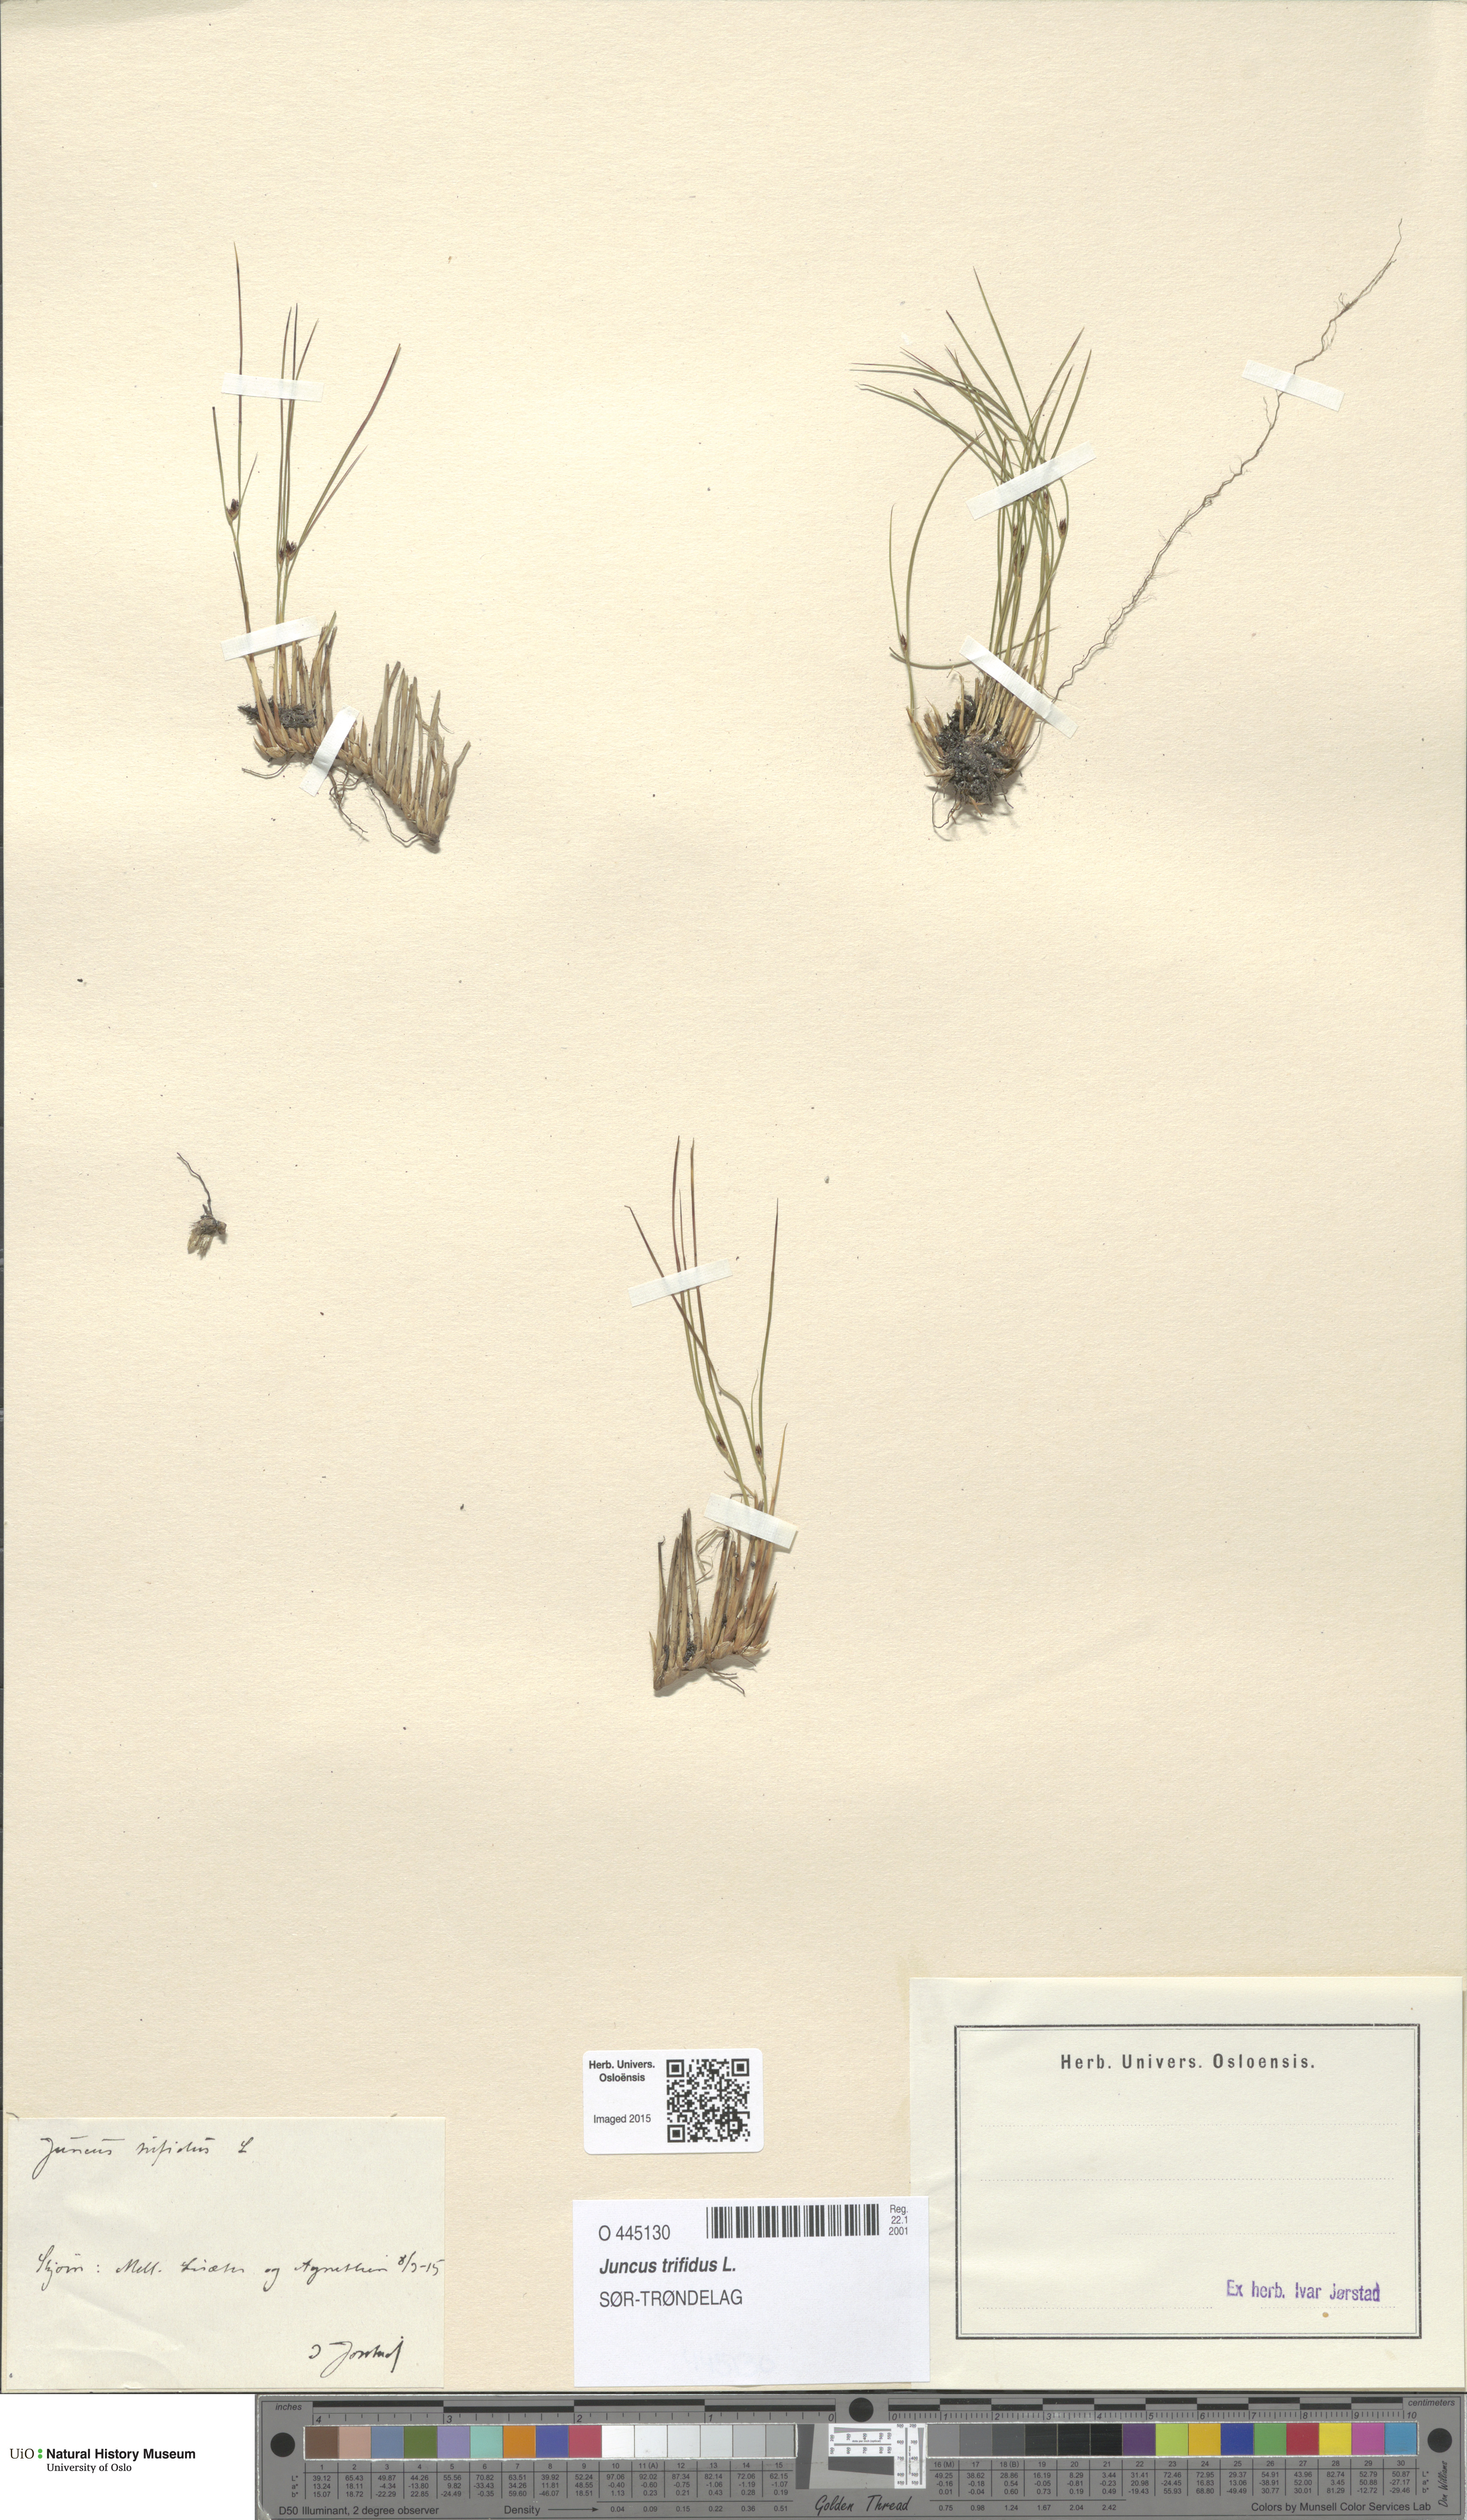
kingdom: Plantae
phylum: Tracheophyta
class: Liliopsida
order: Poales
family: Juncaceae
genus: Oreojuncus
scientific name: Oreojuncus trifidus
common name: Highland rush
